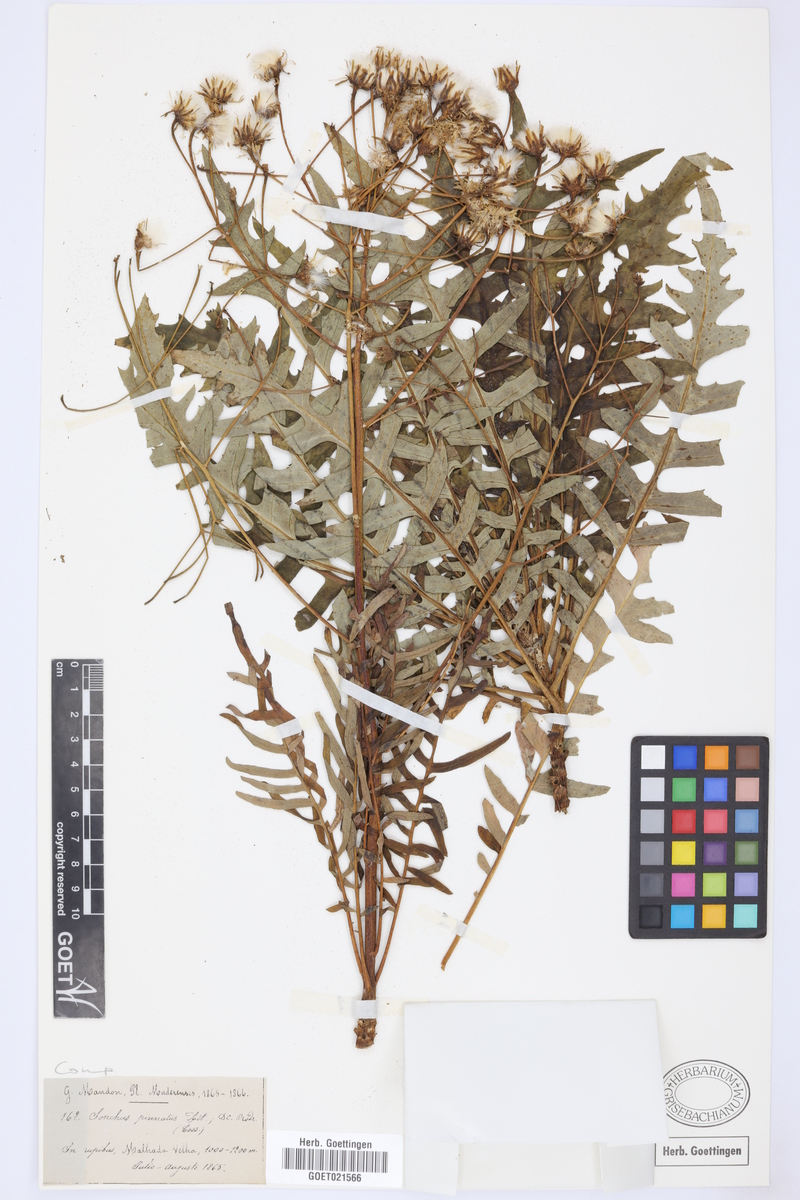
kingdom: Plantae
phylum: Tracheophyta
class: Magnoliopsida
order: Asterales
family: Asteraceae
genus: Sonchus
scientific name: Sonchus pinnatus
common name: Wing-leaved sow-thistle
